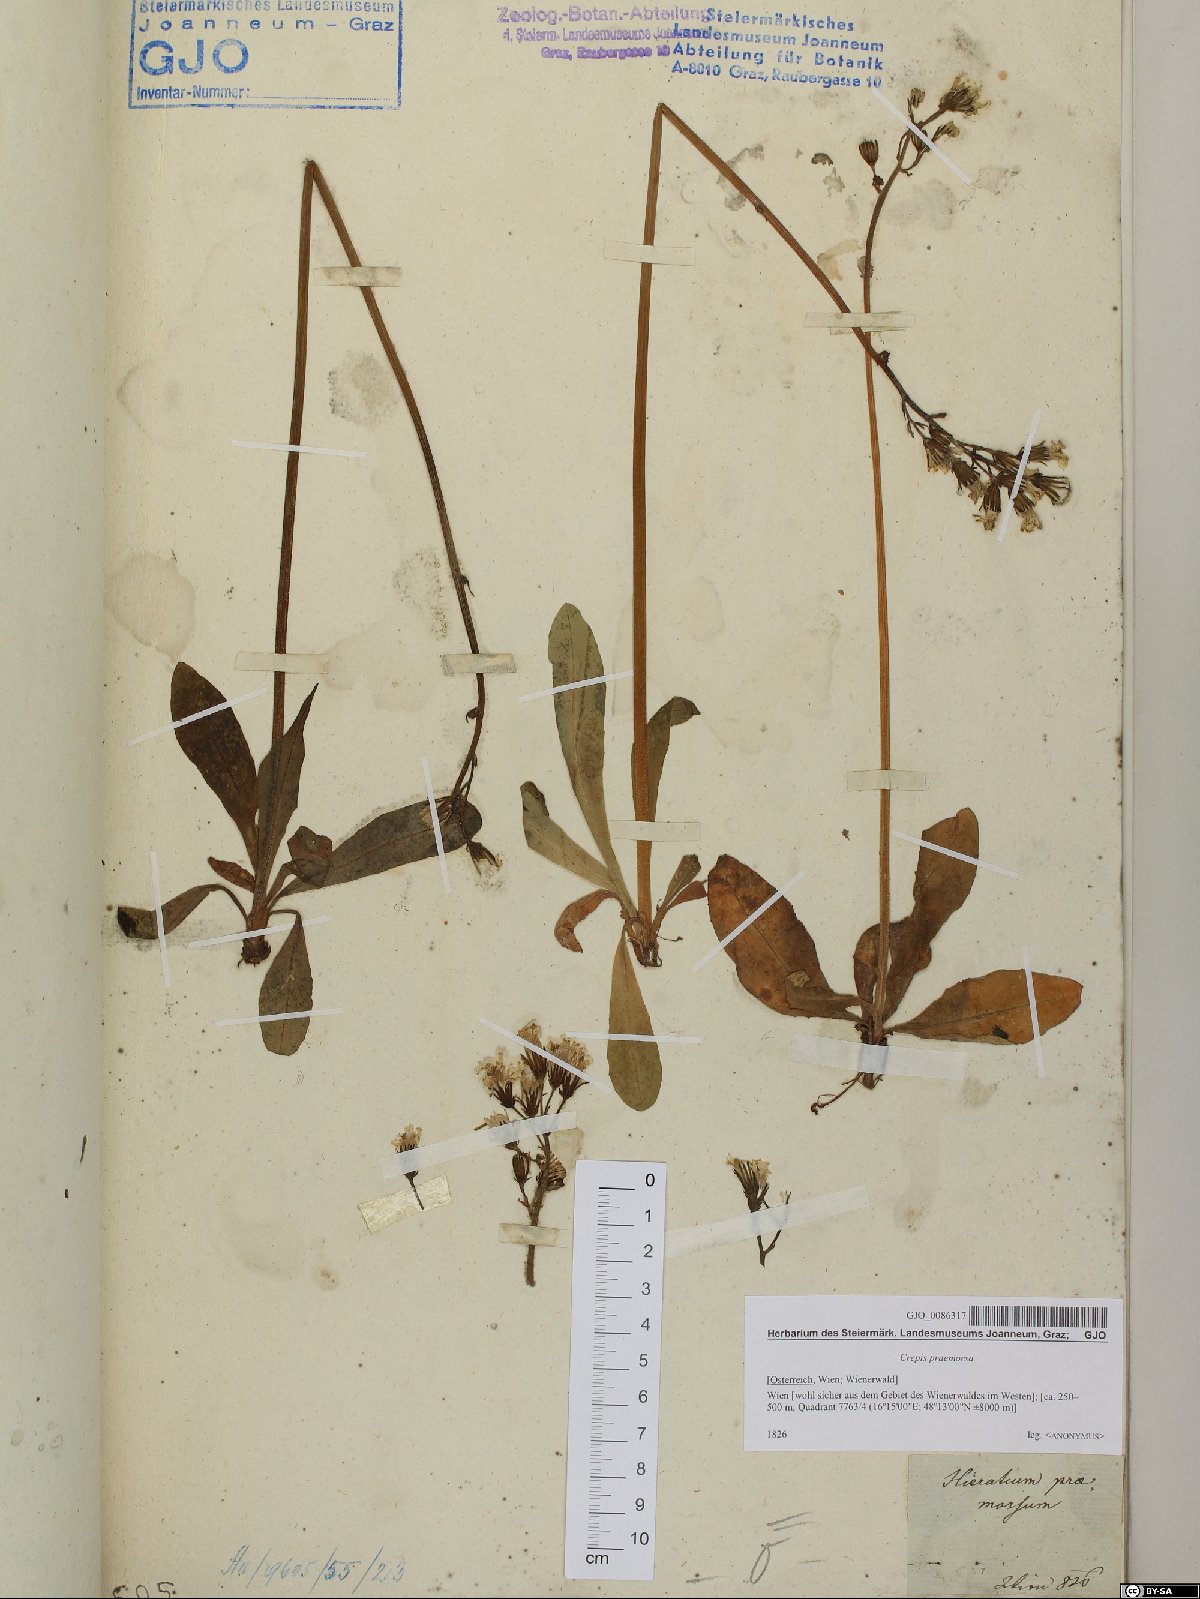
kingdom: Plantae
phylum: Tracheophyta
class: Magnoliopsida
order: Asterales
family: Asteraceae
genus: Crepis
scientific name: Crepis praemorsa
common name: Leafless hawk's-beard
